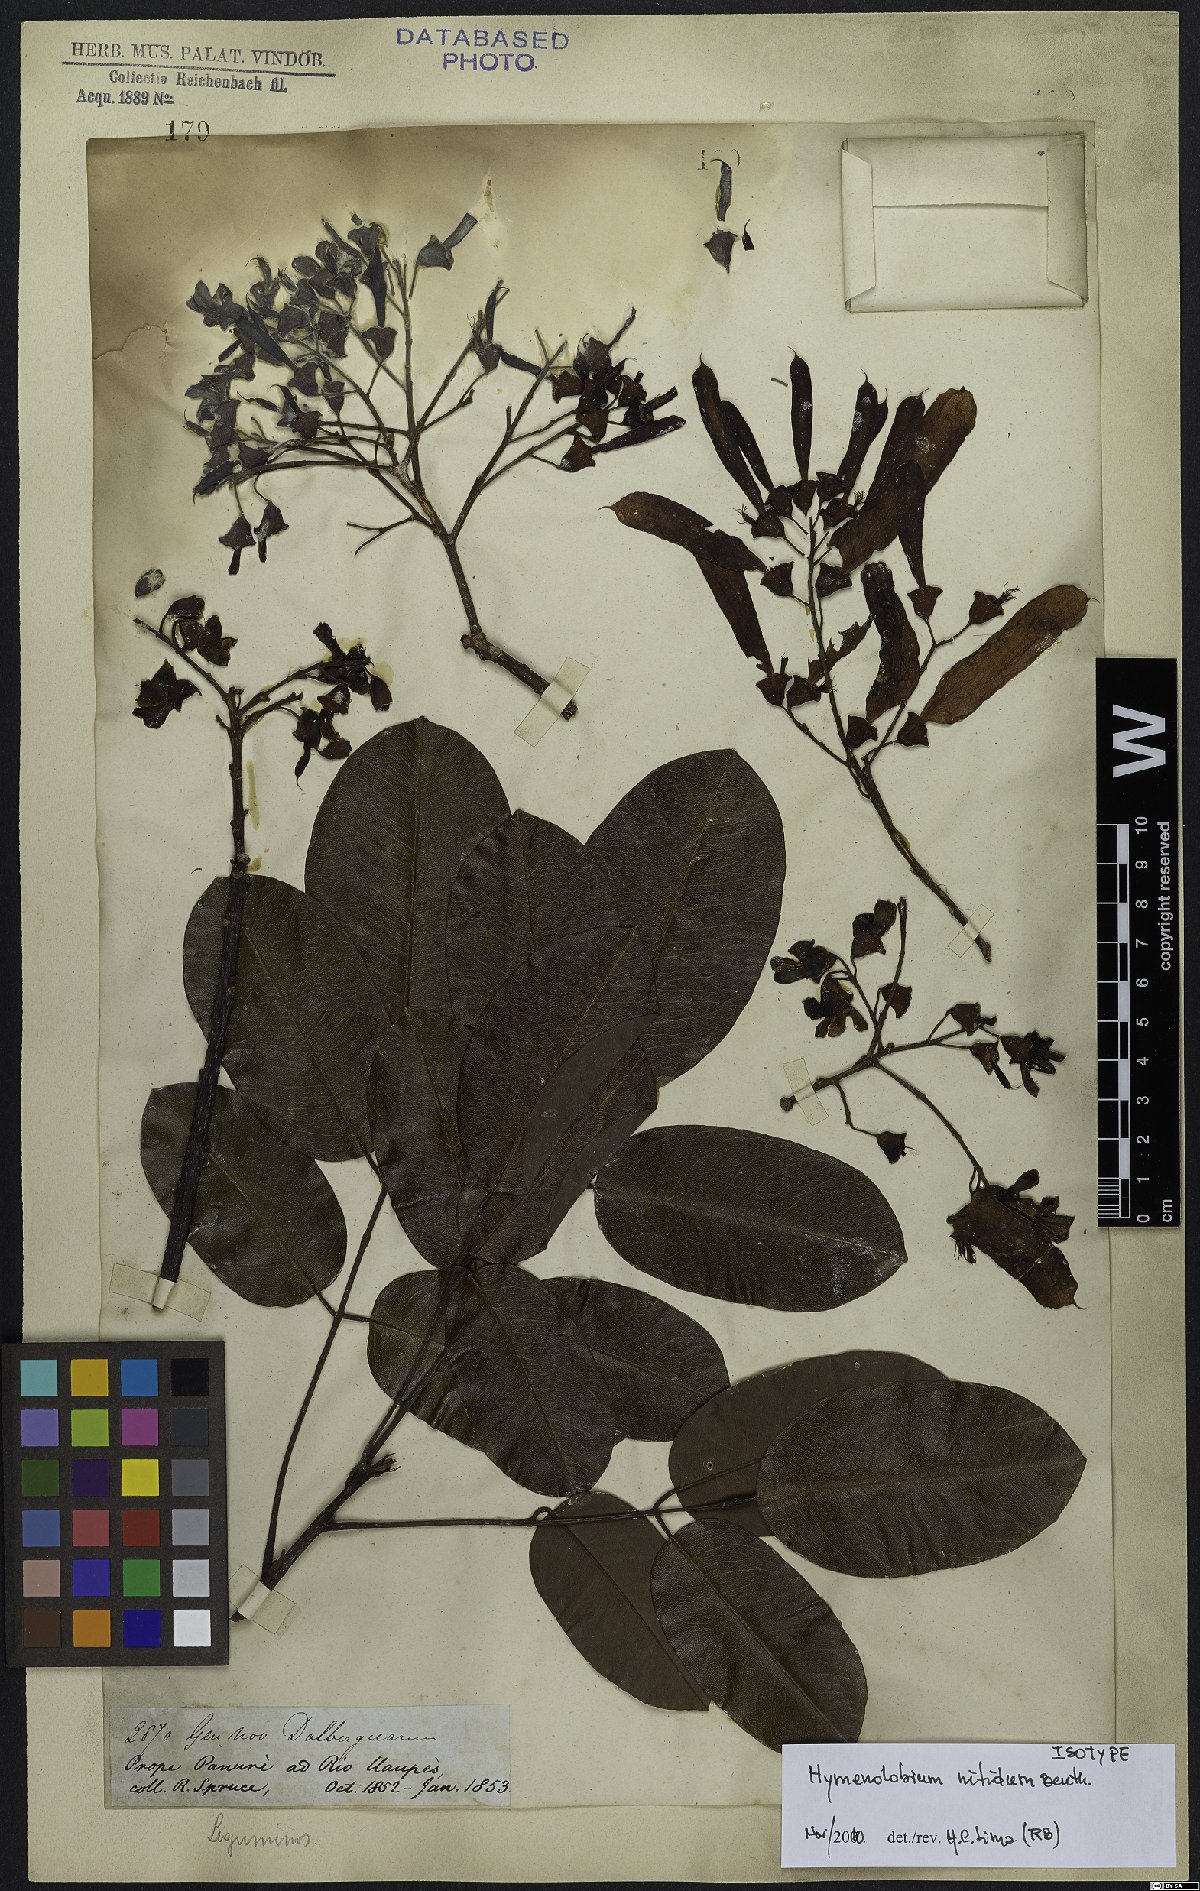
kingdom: Plantae
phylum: Tracheophyta
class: Magnoliopsida
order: Fabales
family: Fabaceae
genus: Hymenolobium
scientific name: Hymenolobium nitidum
